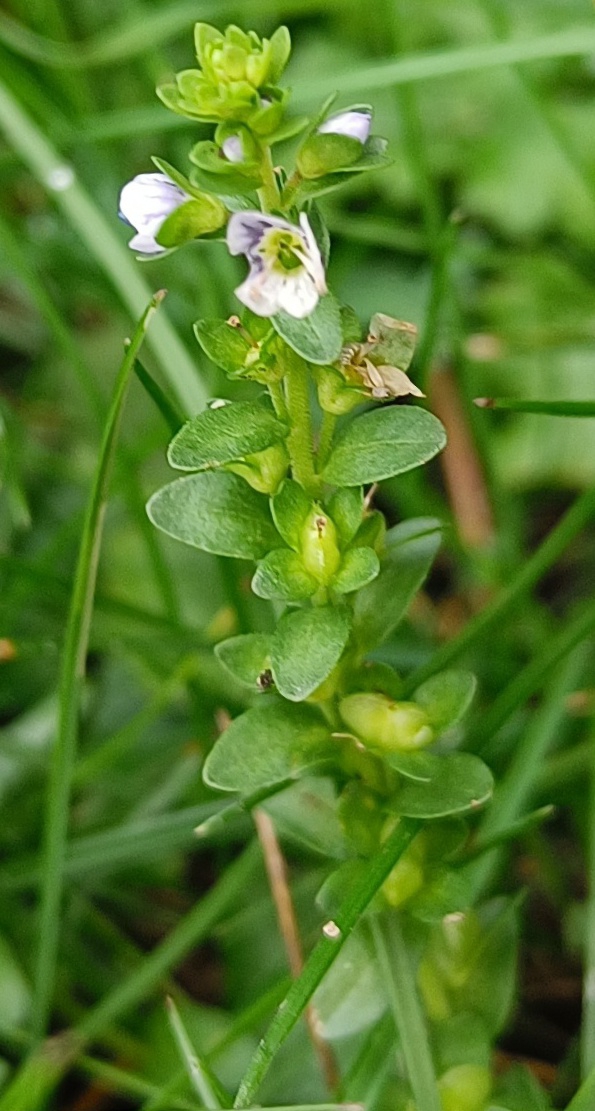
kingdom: Plantae
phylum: Tracheophyta
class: Magnoliopsida
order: Lamiales
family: Plantaginaceae
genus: Veronica
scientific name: Veronica serpyllifolia
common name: Glat ærenpris
